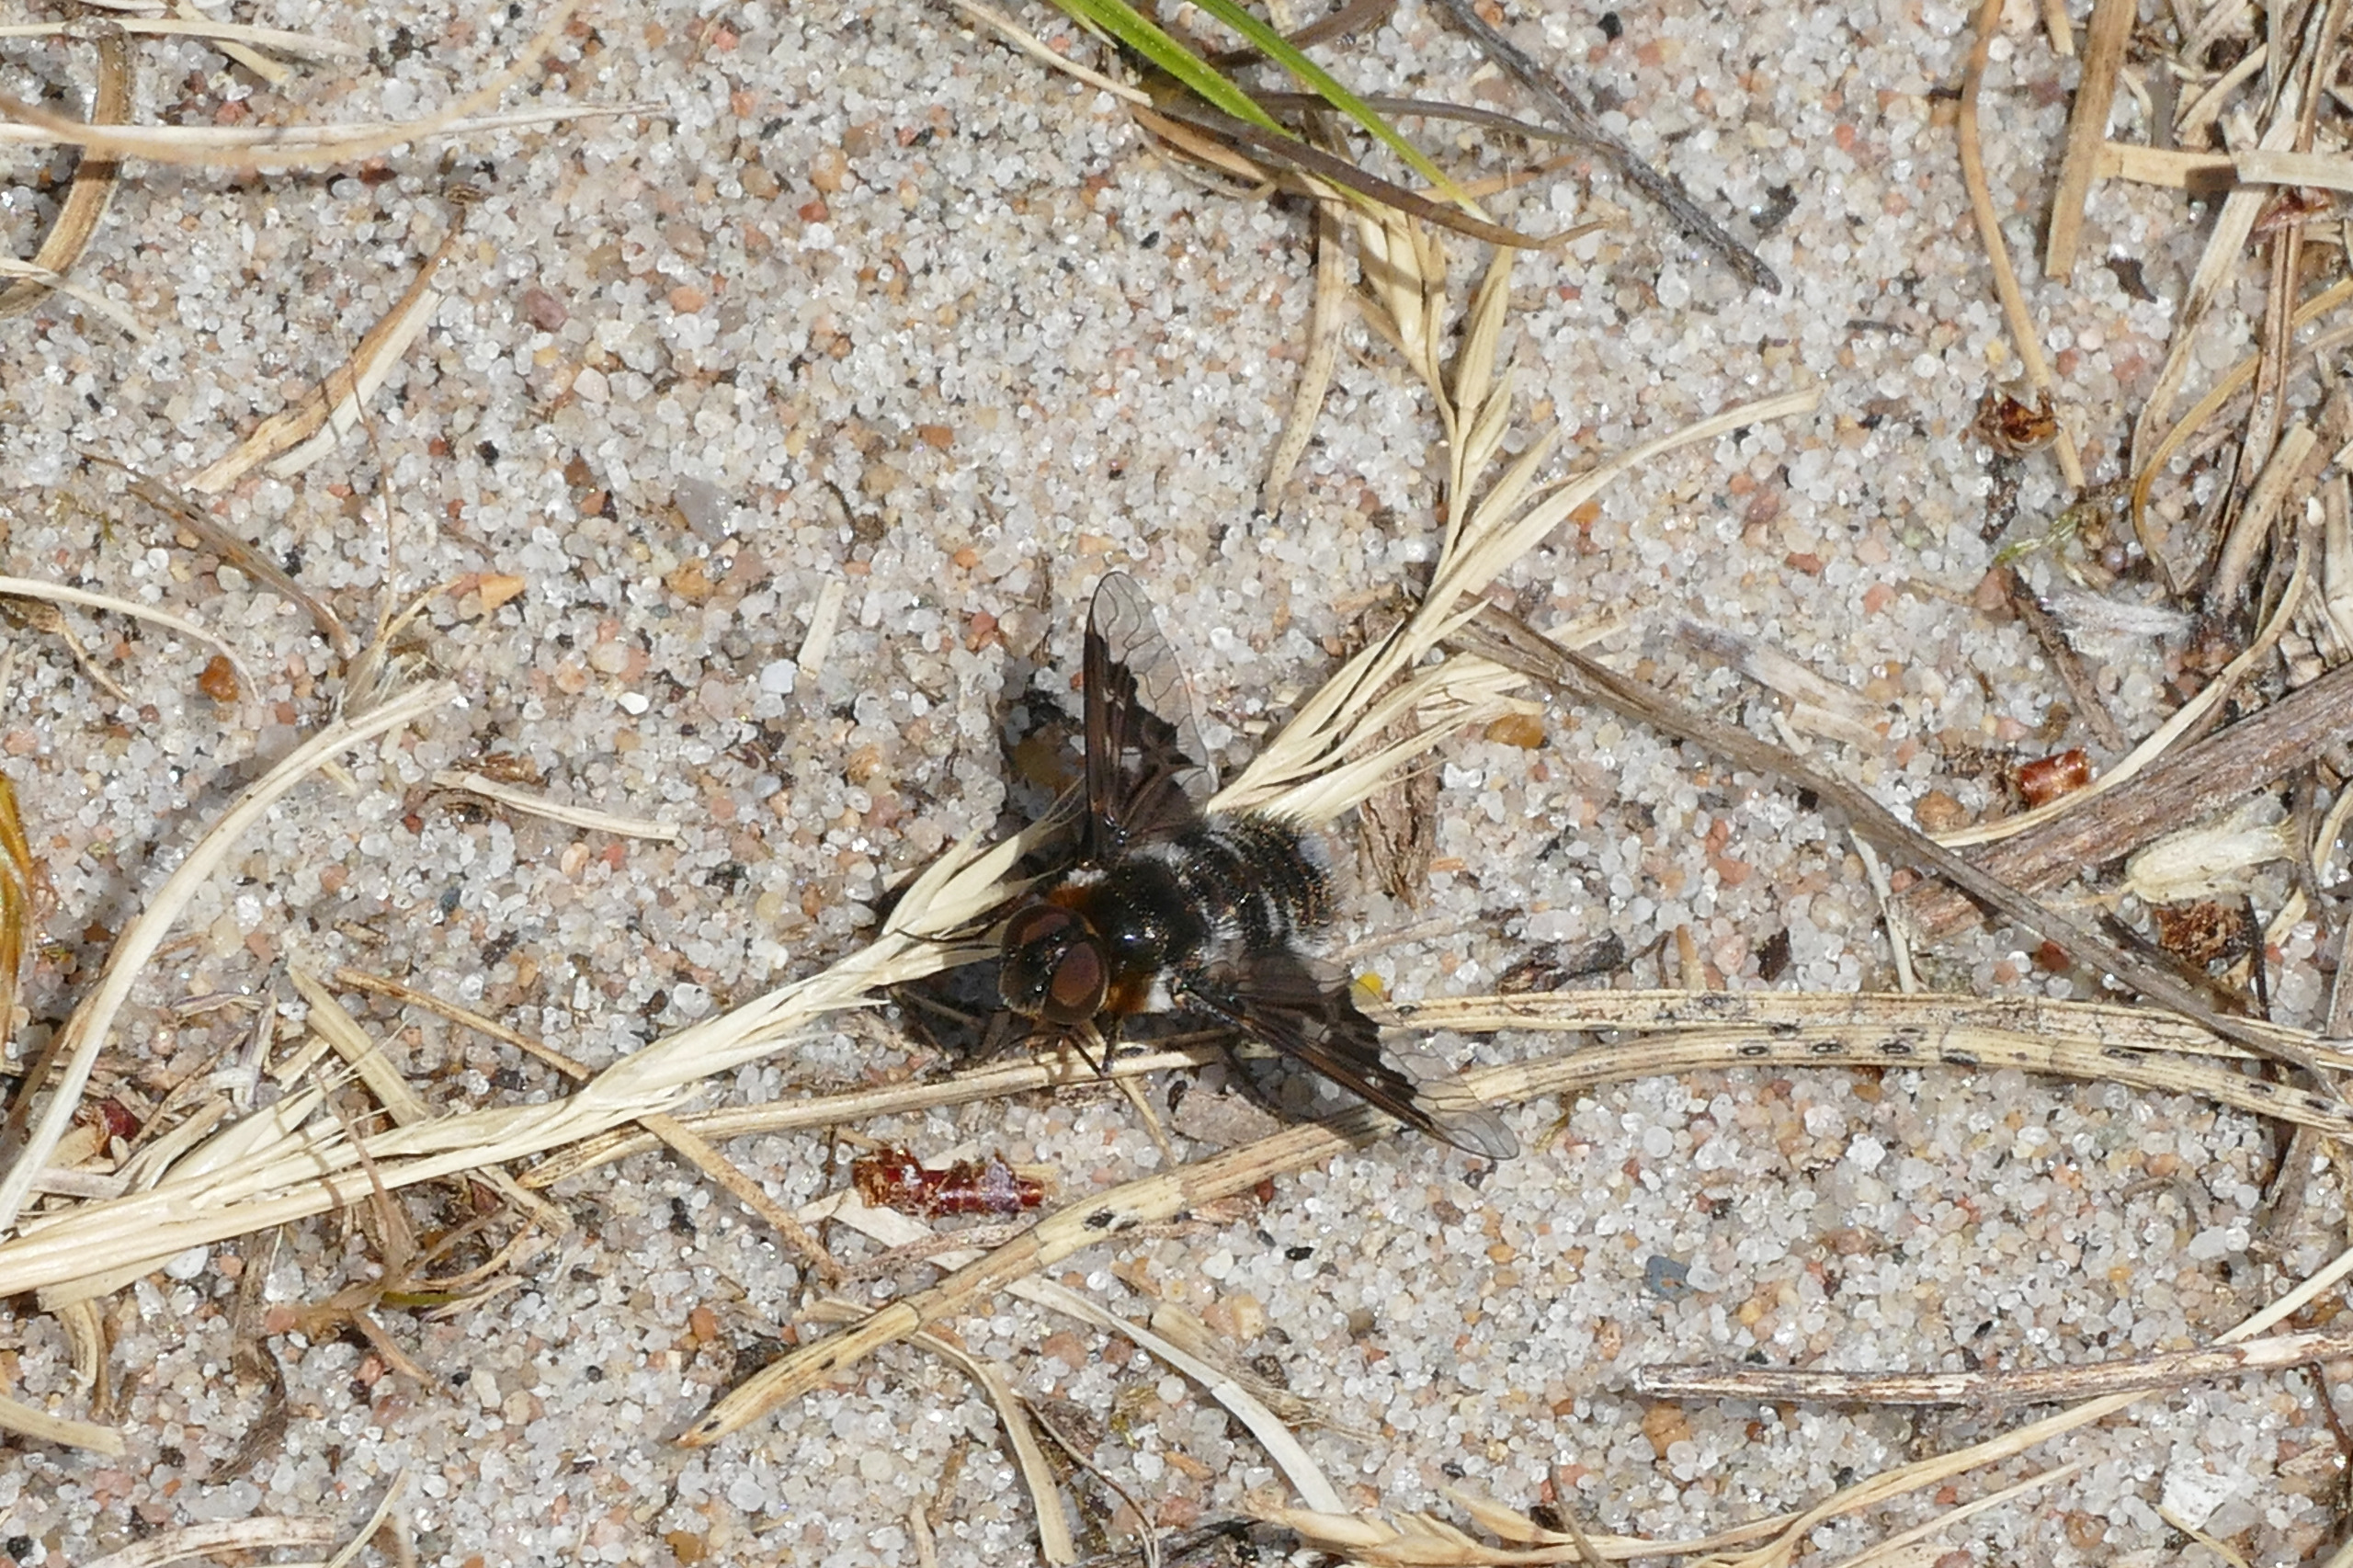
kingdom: Animalia
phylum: Arthropoda
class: Insecta
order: Diptera
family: Bombyliidae
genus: Thyridanthrax
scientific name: Thyridanthrax fenestratus
